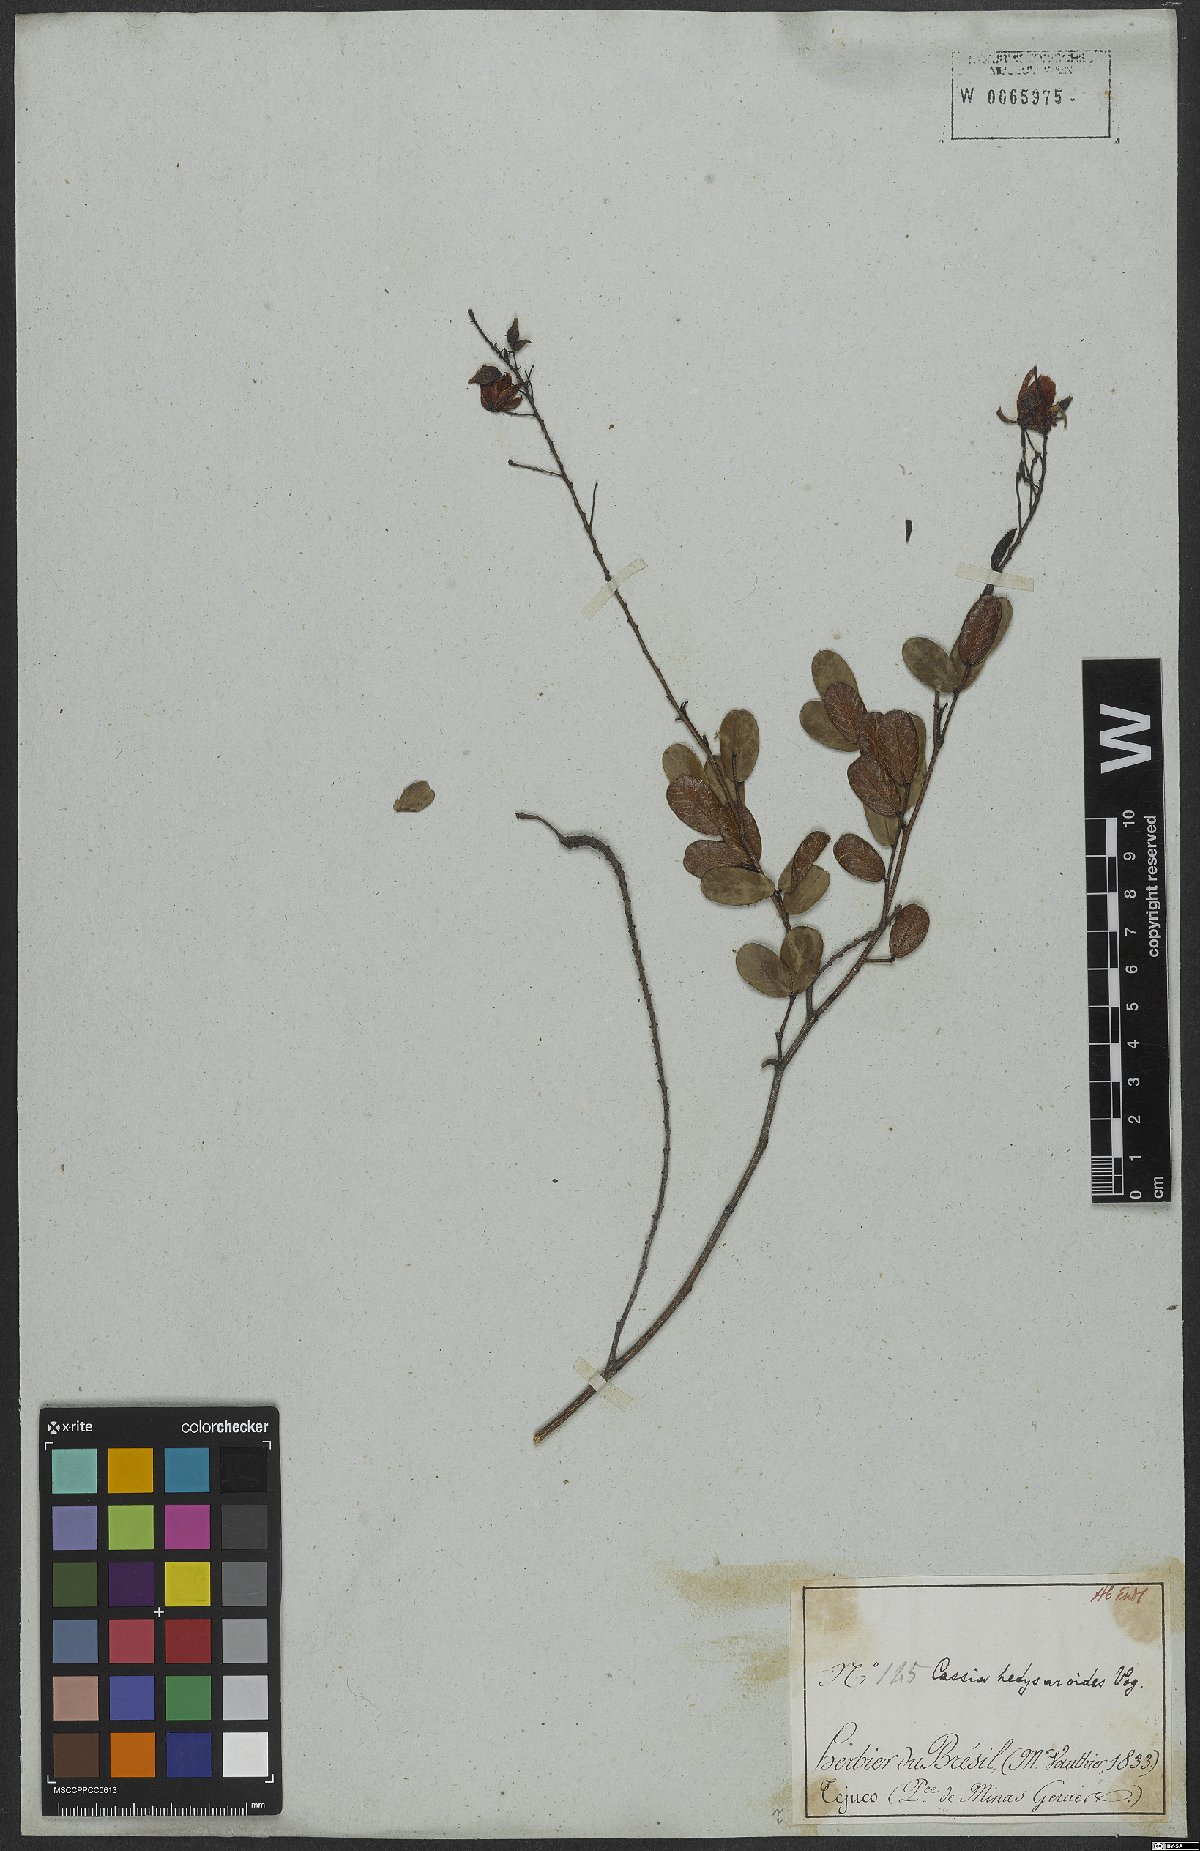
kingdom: Plantae
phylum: Tracheophyta
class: Magnoliopsida
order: Fabales
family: Fabaceae
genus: Chamaecrista
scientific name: Chamaecrista hedysaroides
